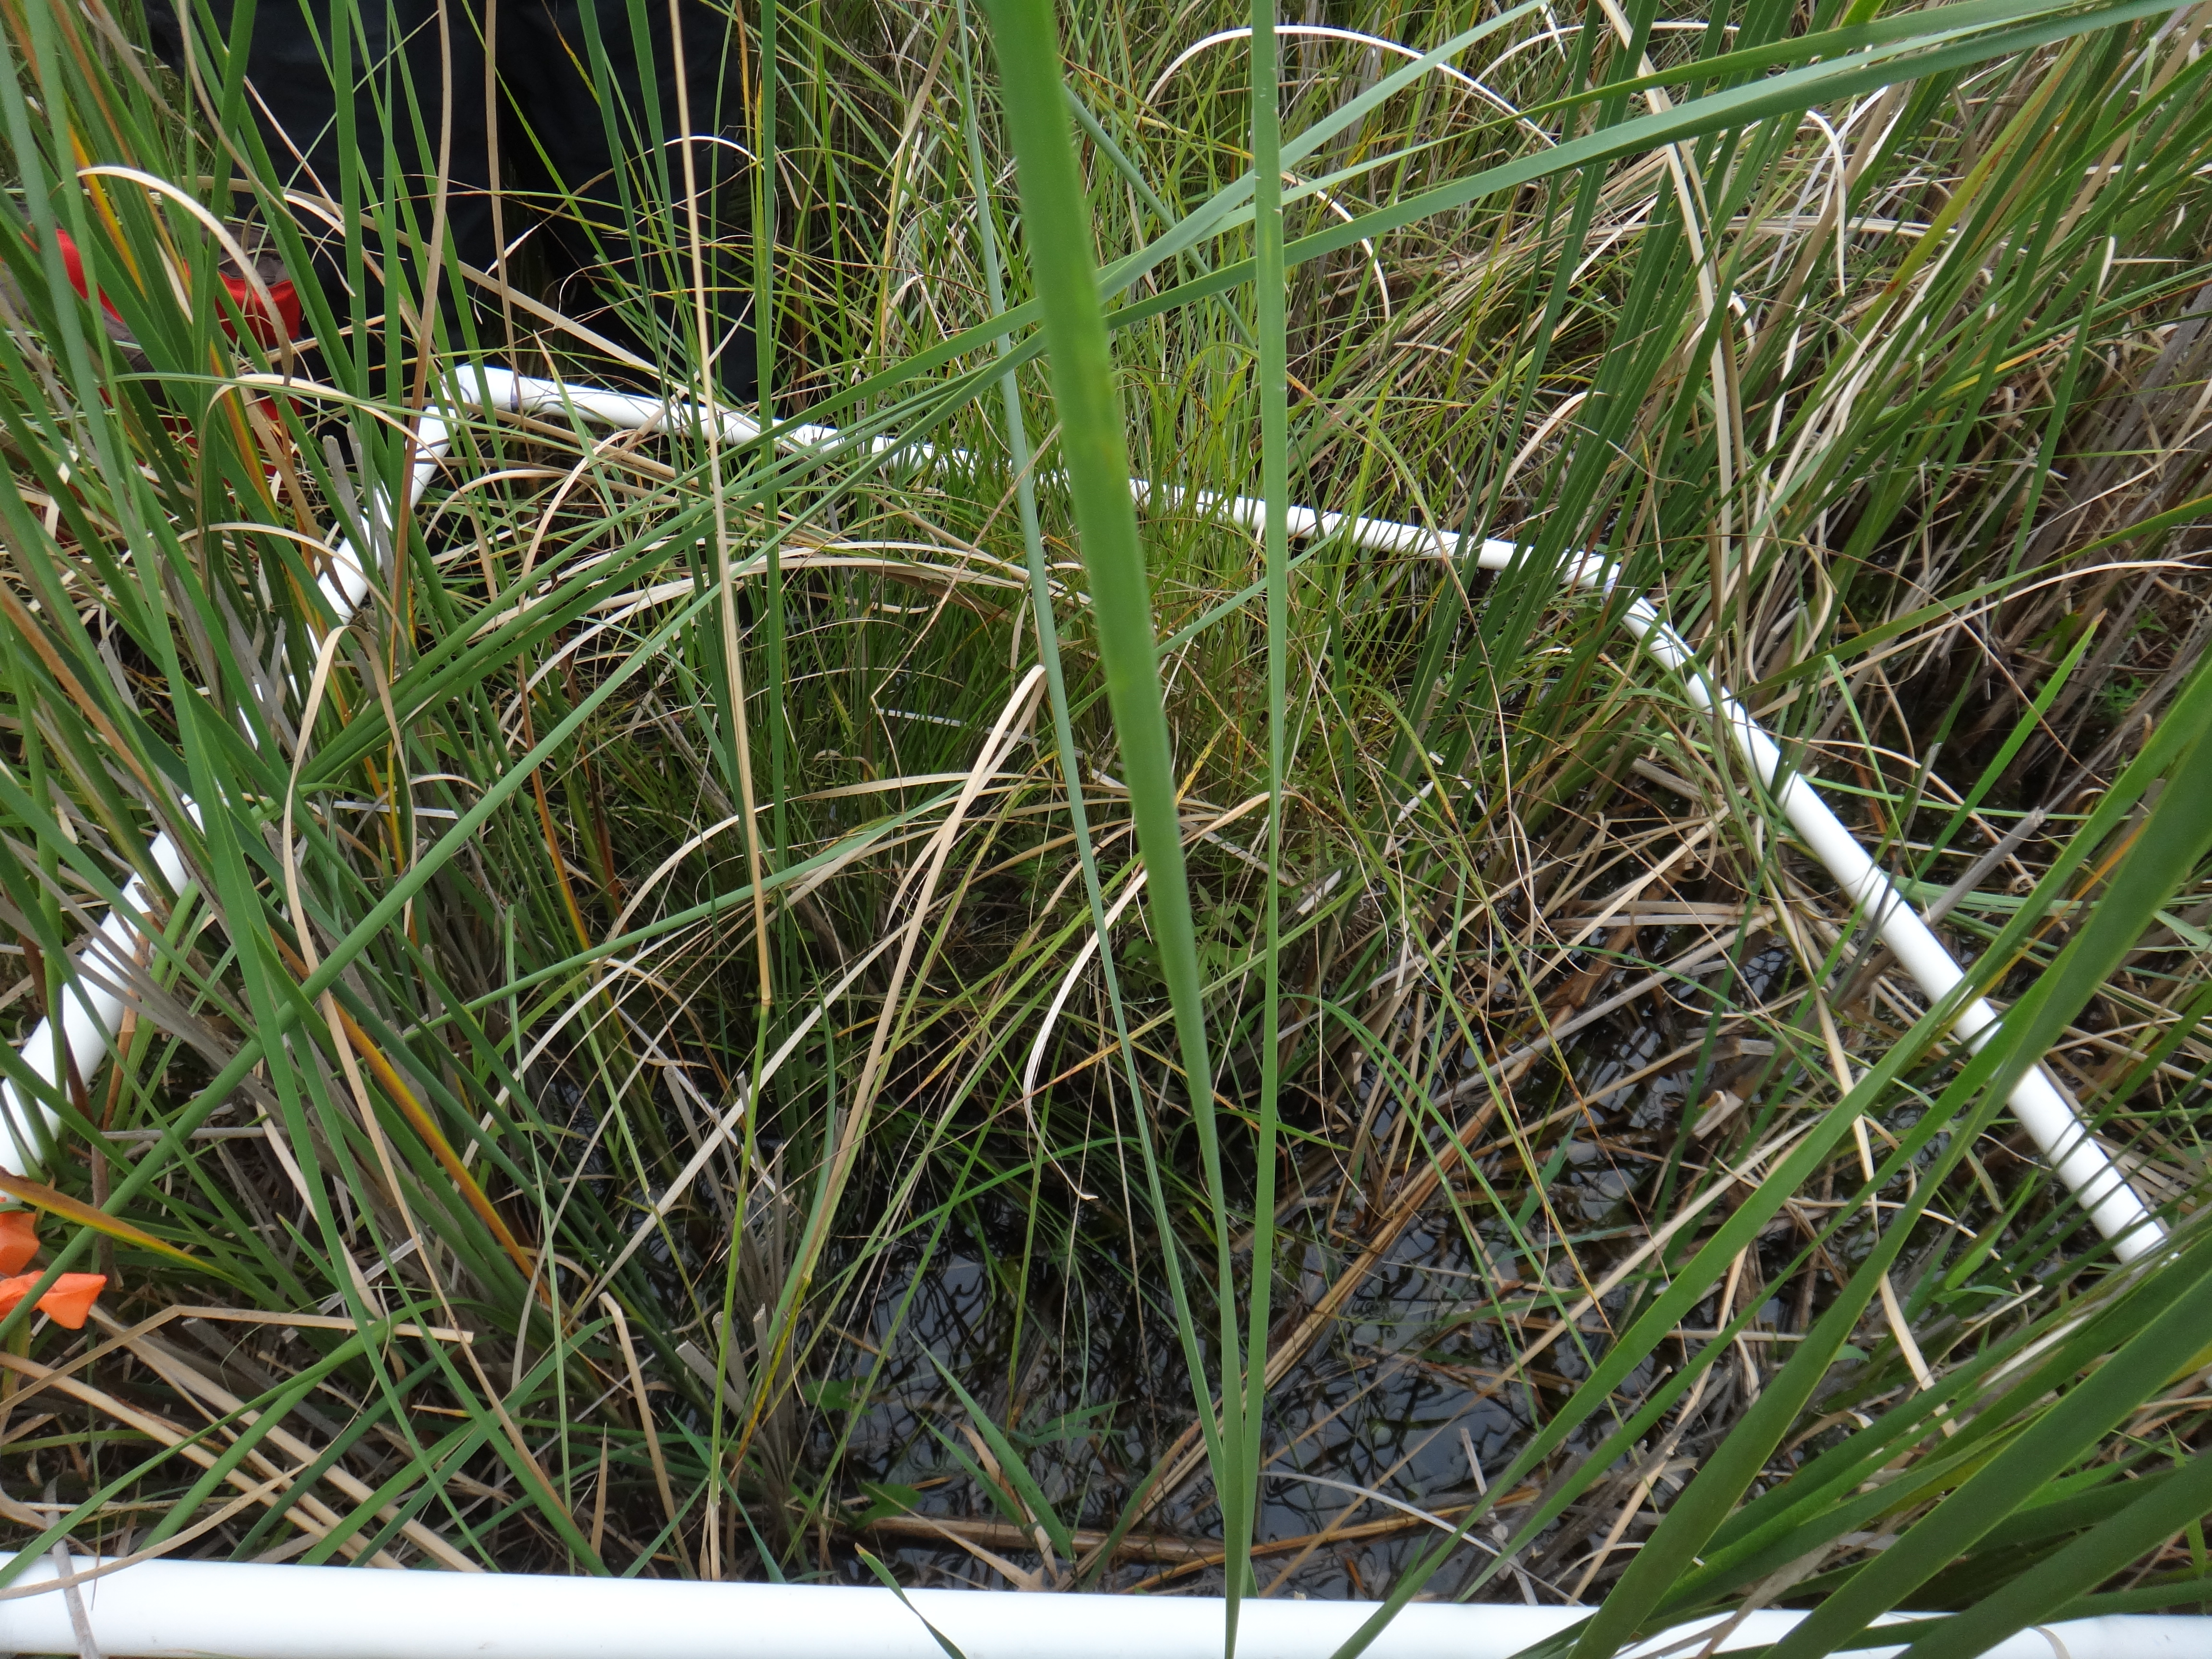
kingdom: Plantae
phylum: Tracheophyta
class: Liliopsida
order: Alismatales
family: Alismataceae
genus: Sagittaria
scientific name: Sagittaria latifolia
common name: Duck-potato
